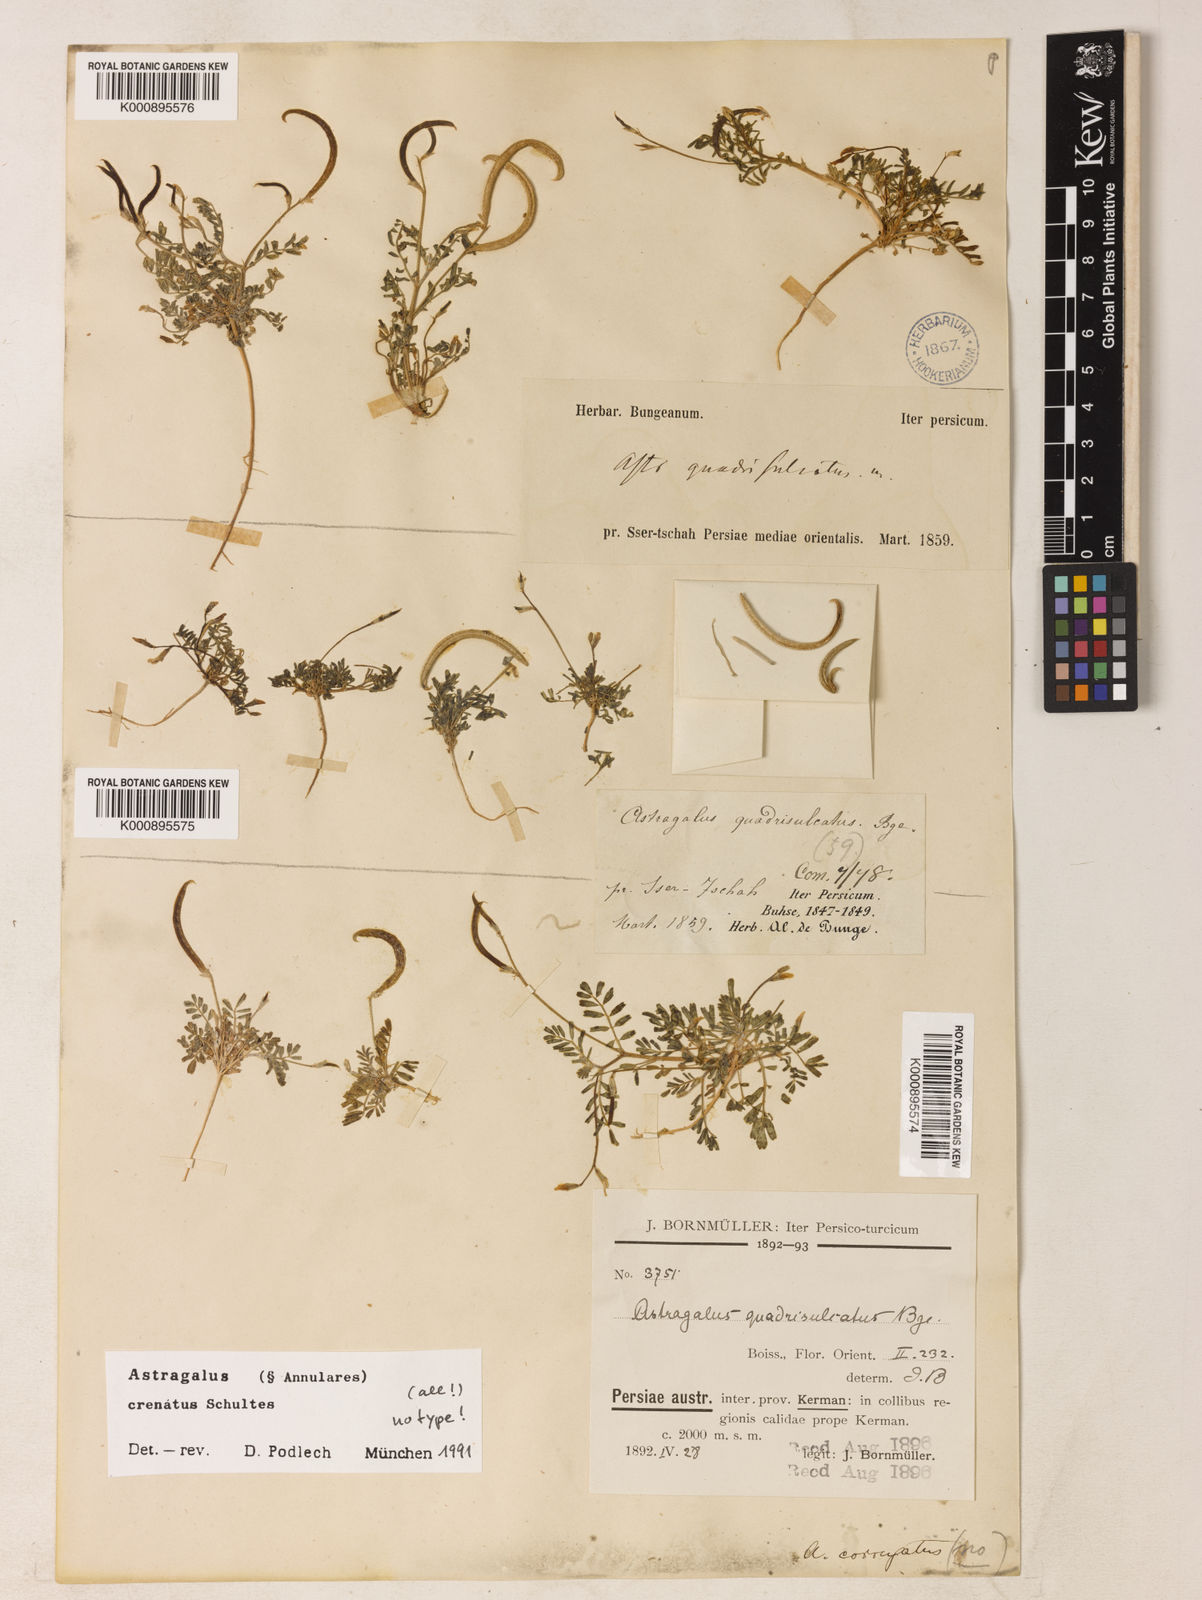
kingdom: Plantae
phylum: Tracheophyta
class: Magnoliopsida
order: Fabales
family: Fabaceae
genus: Astragalus
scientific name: Astragalus
